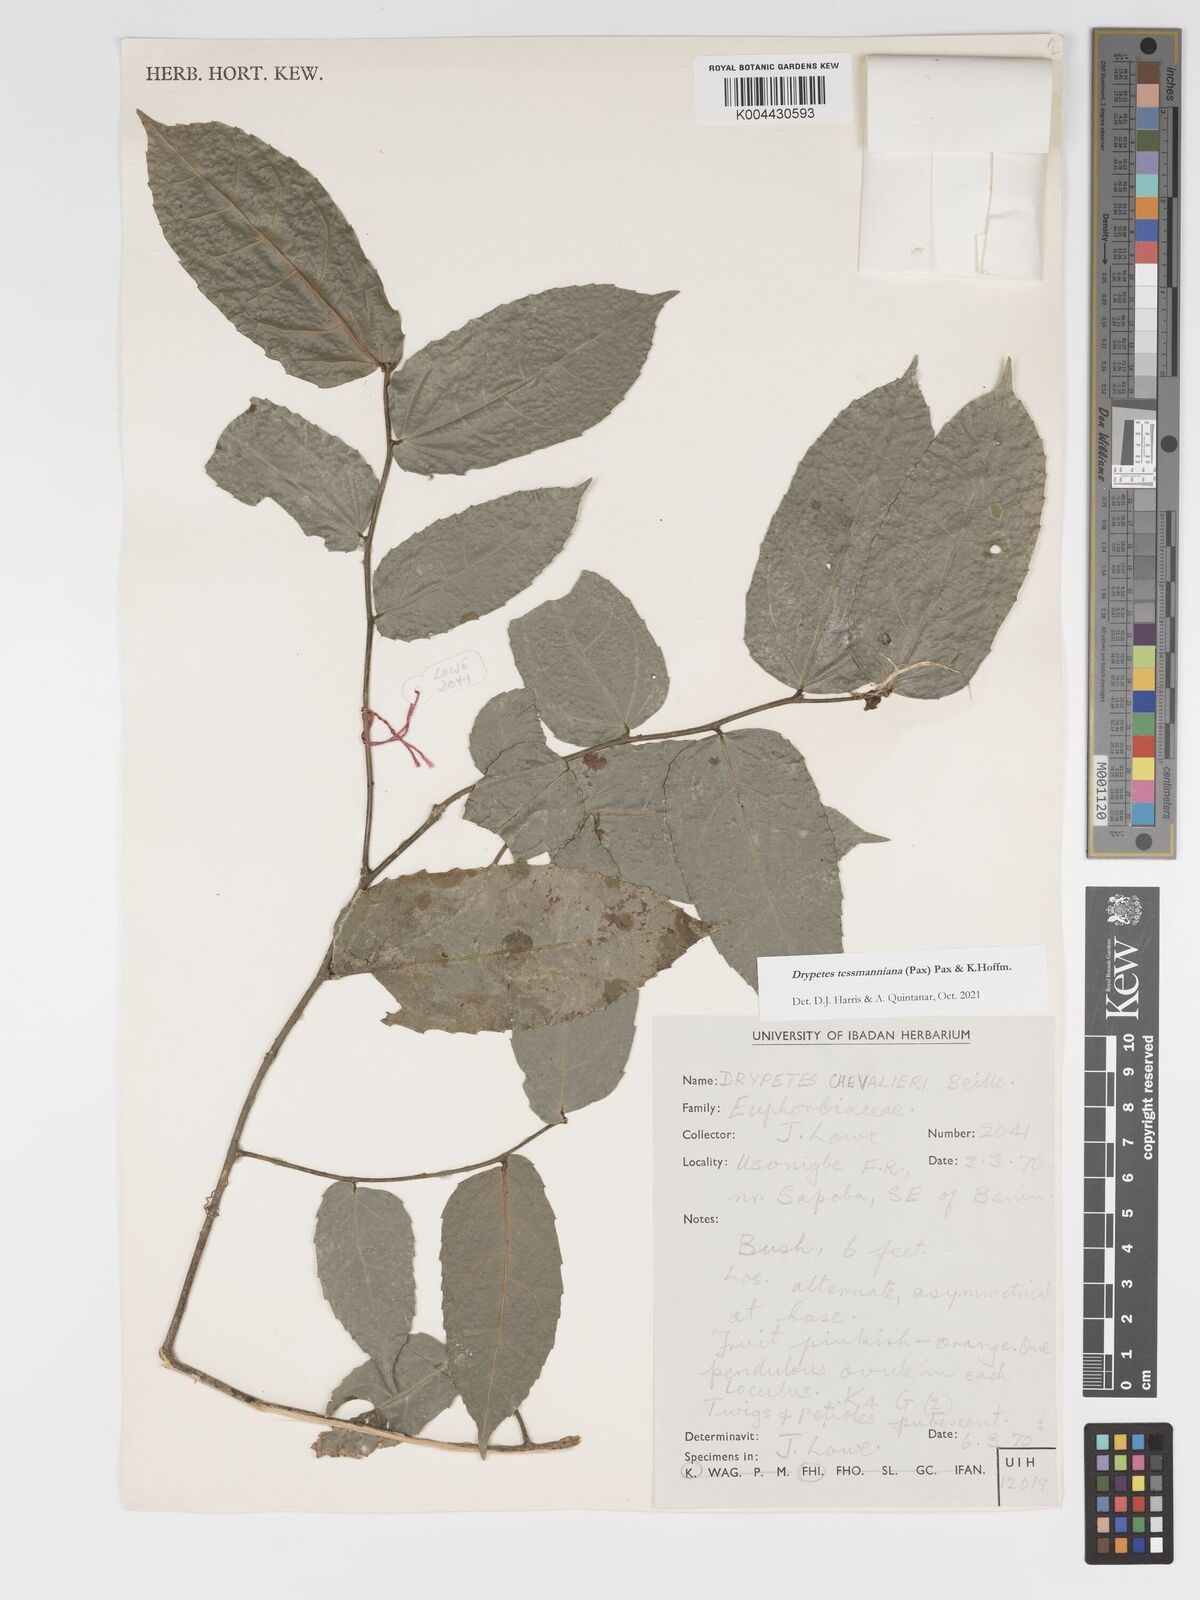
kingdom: Plantae
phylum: Tracheophyta
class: Magnoliopsida
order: Malpighiales
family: Putranjivaceae
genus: Drypetes
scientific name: Drypetes tessmanniana
